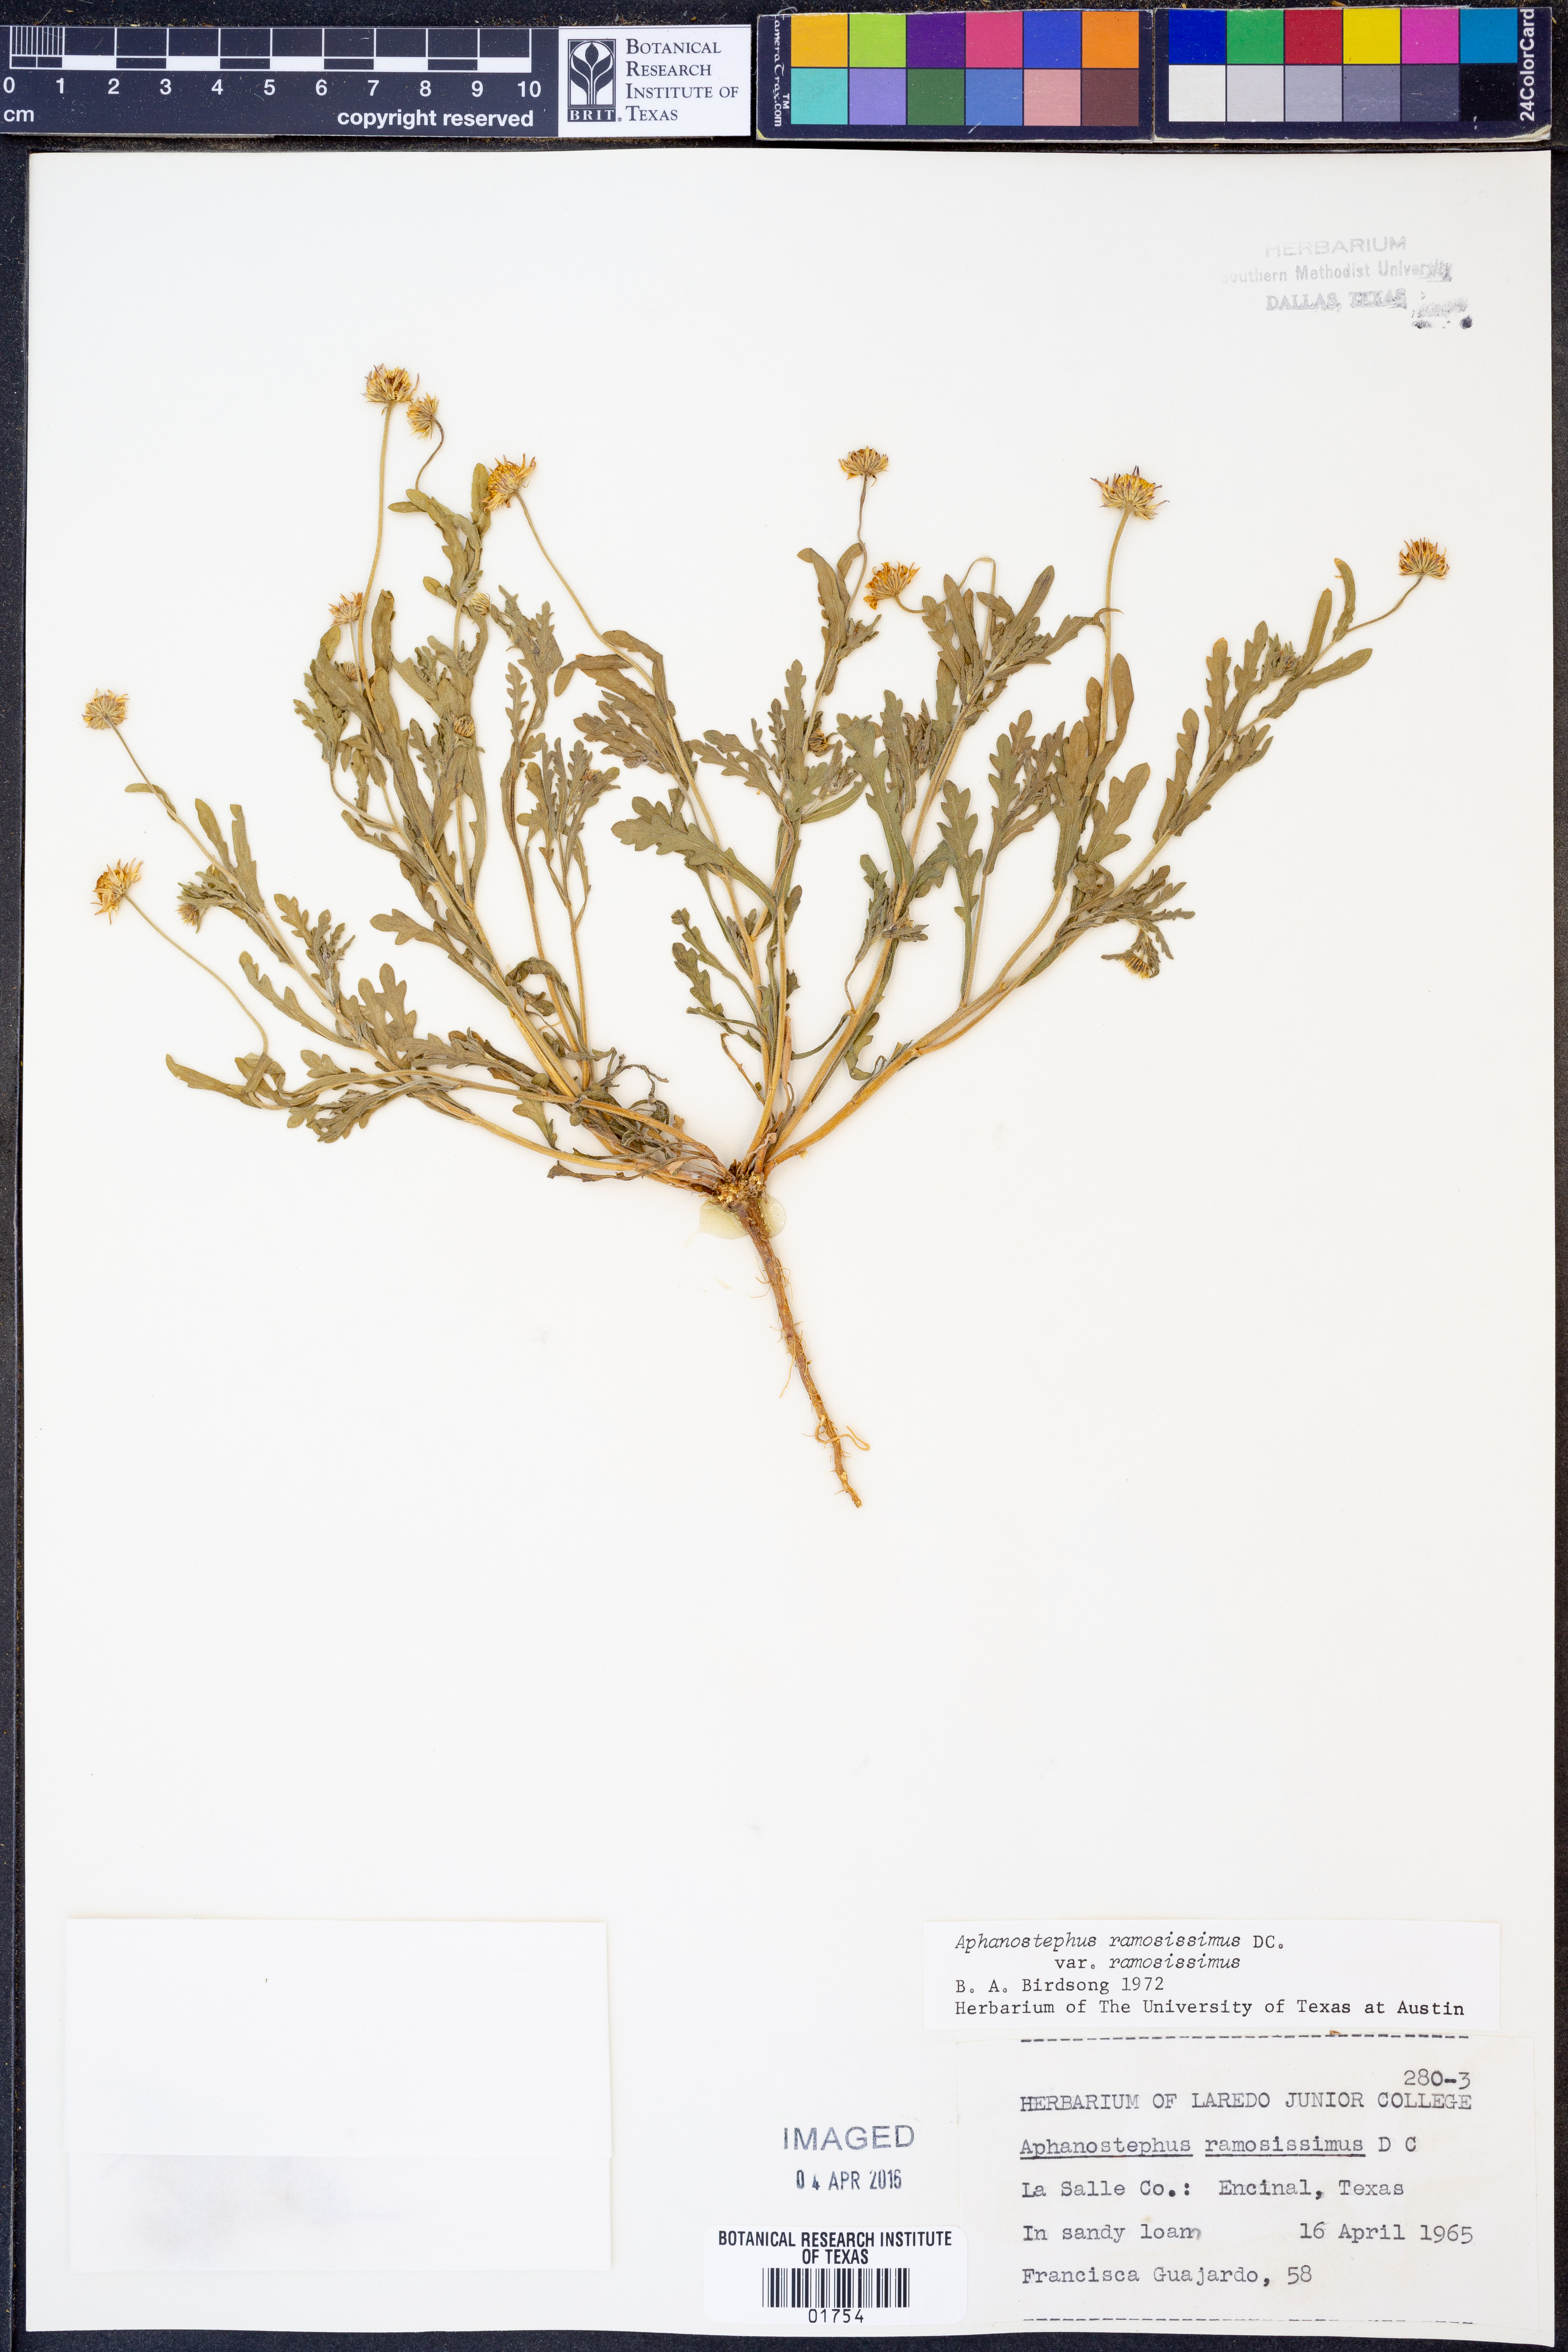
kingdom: Plantae
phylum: Tracheophyta
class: Magnoliopsida
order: Asterales
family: Asteraceae
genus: Aphanostephus
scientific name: Aphanostephus ramosissimus
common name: Plains lazy daisy
